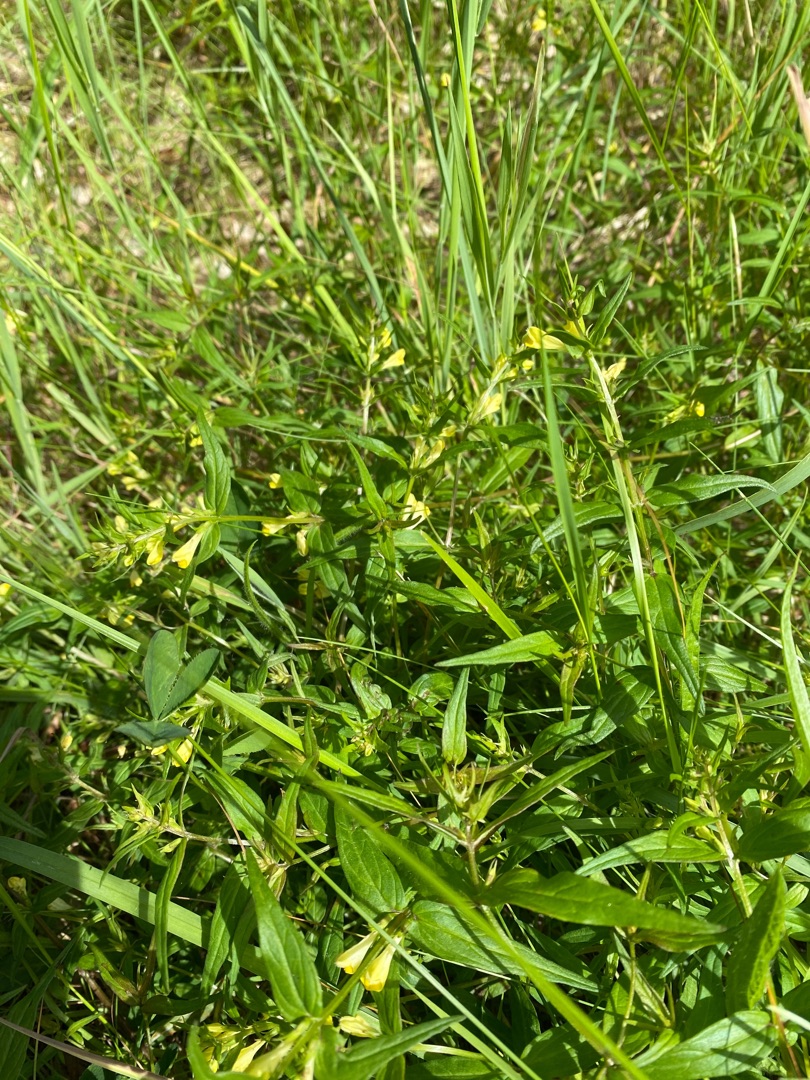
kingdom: Plantae
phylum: Tracheophyta
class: Magnoliopsida
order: Lamiales
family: Orobanchaceae
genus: Melampyrum
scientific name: Melampyrum pratense
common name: Almindelig kohvede
